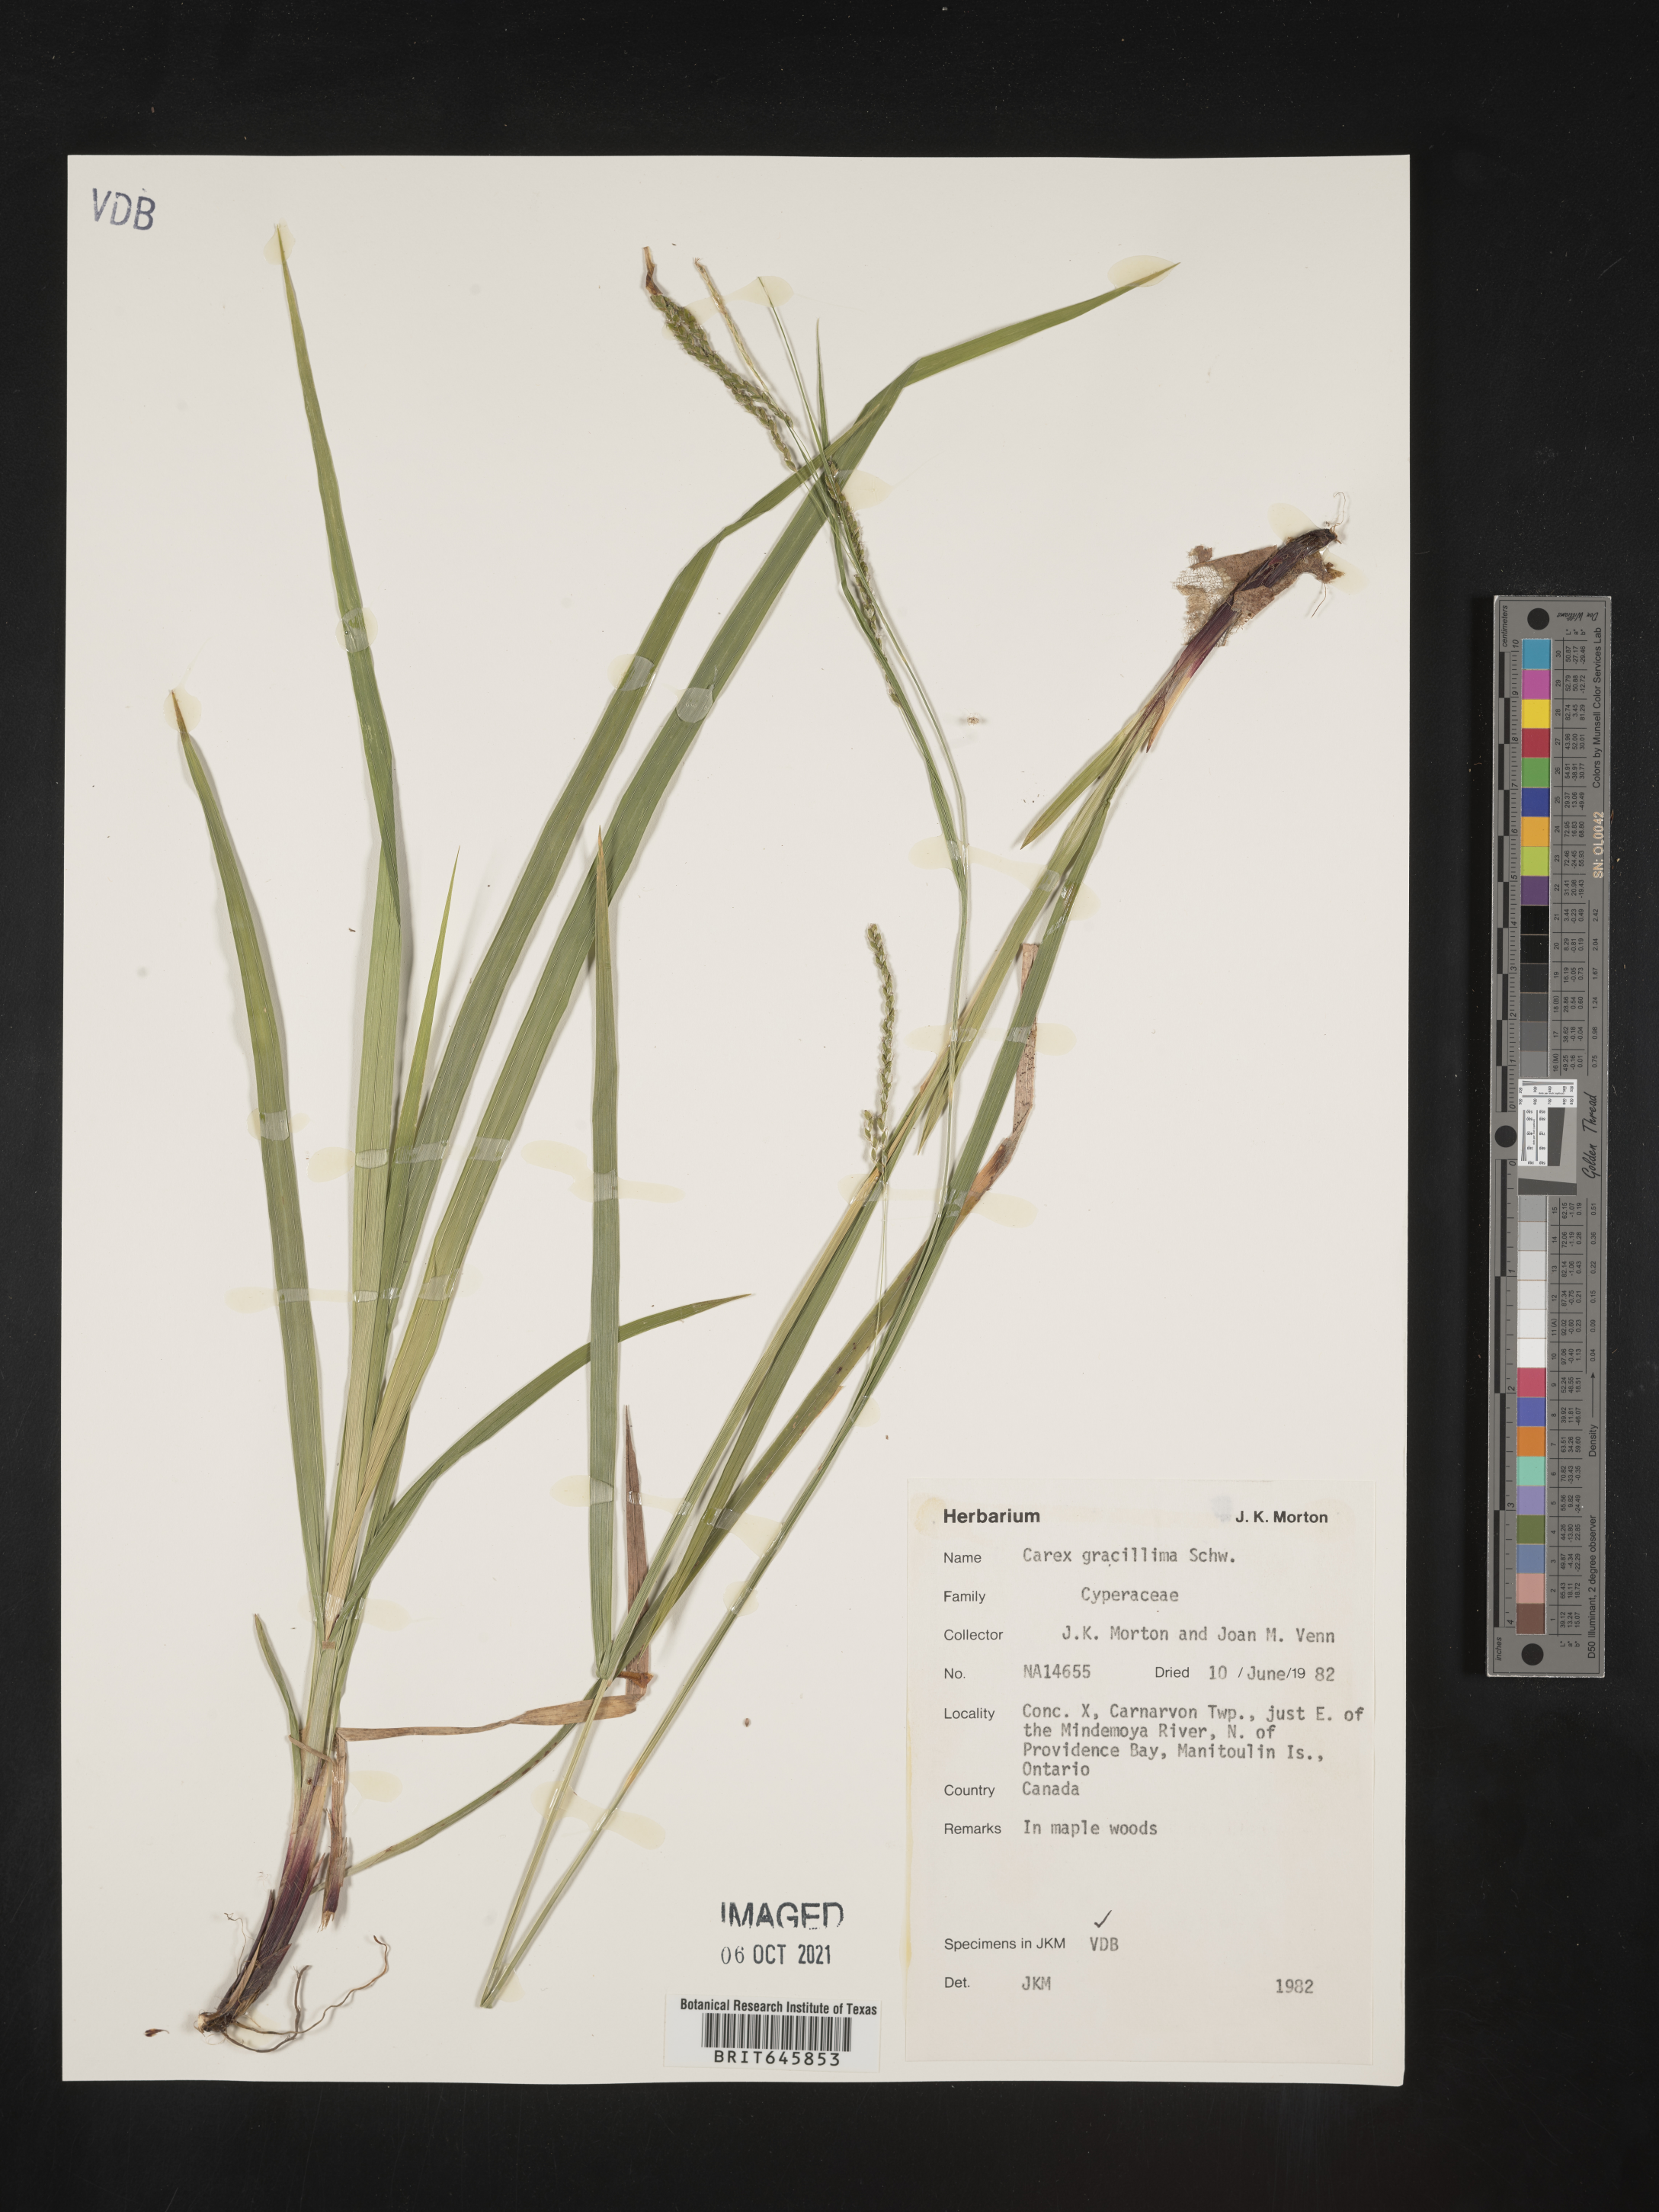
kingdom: Plantae
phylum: Tracheophyta
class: Liliopsida
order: Poales
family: Cyperaceae
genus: Carex
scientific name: Carex gracillima
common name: Graceful sedge
